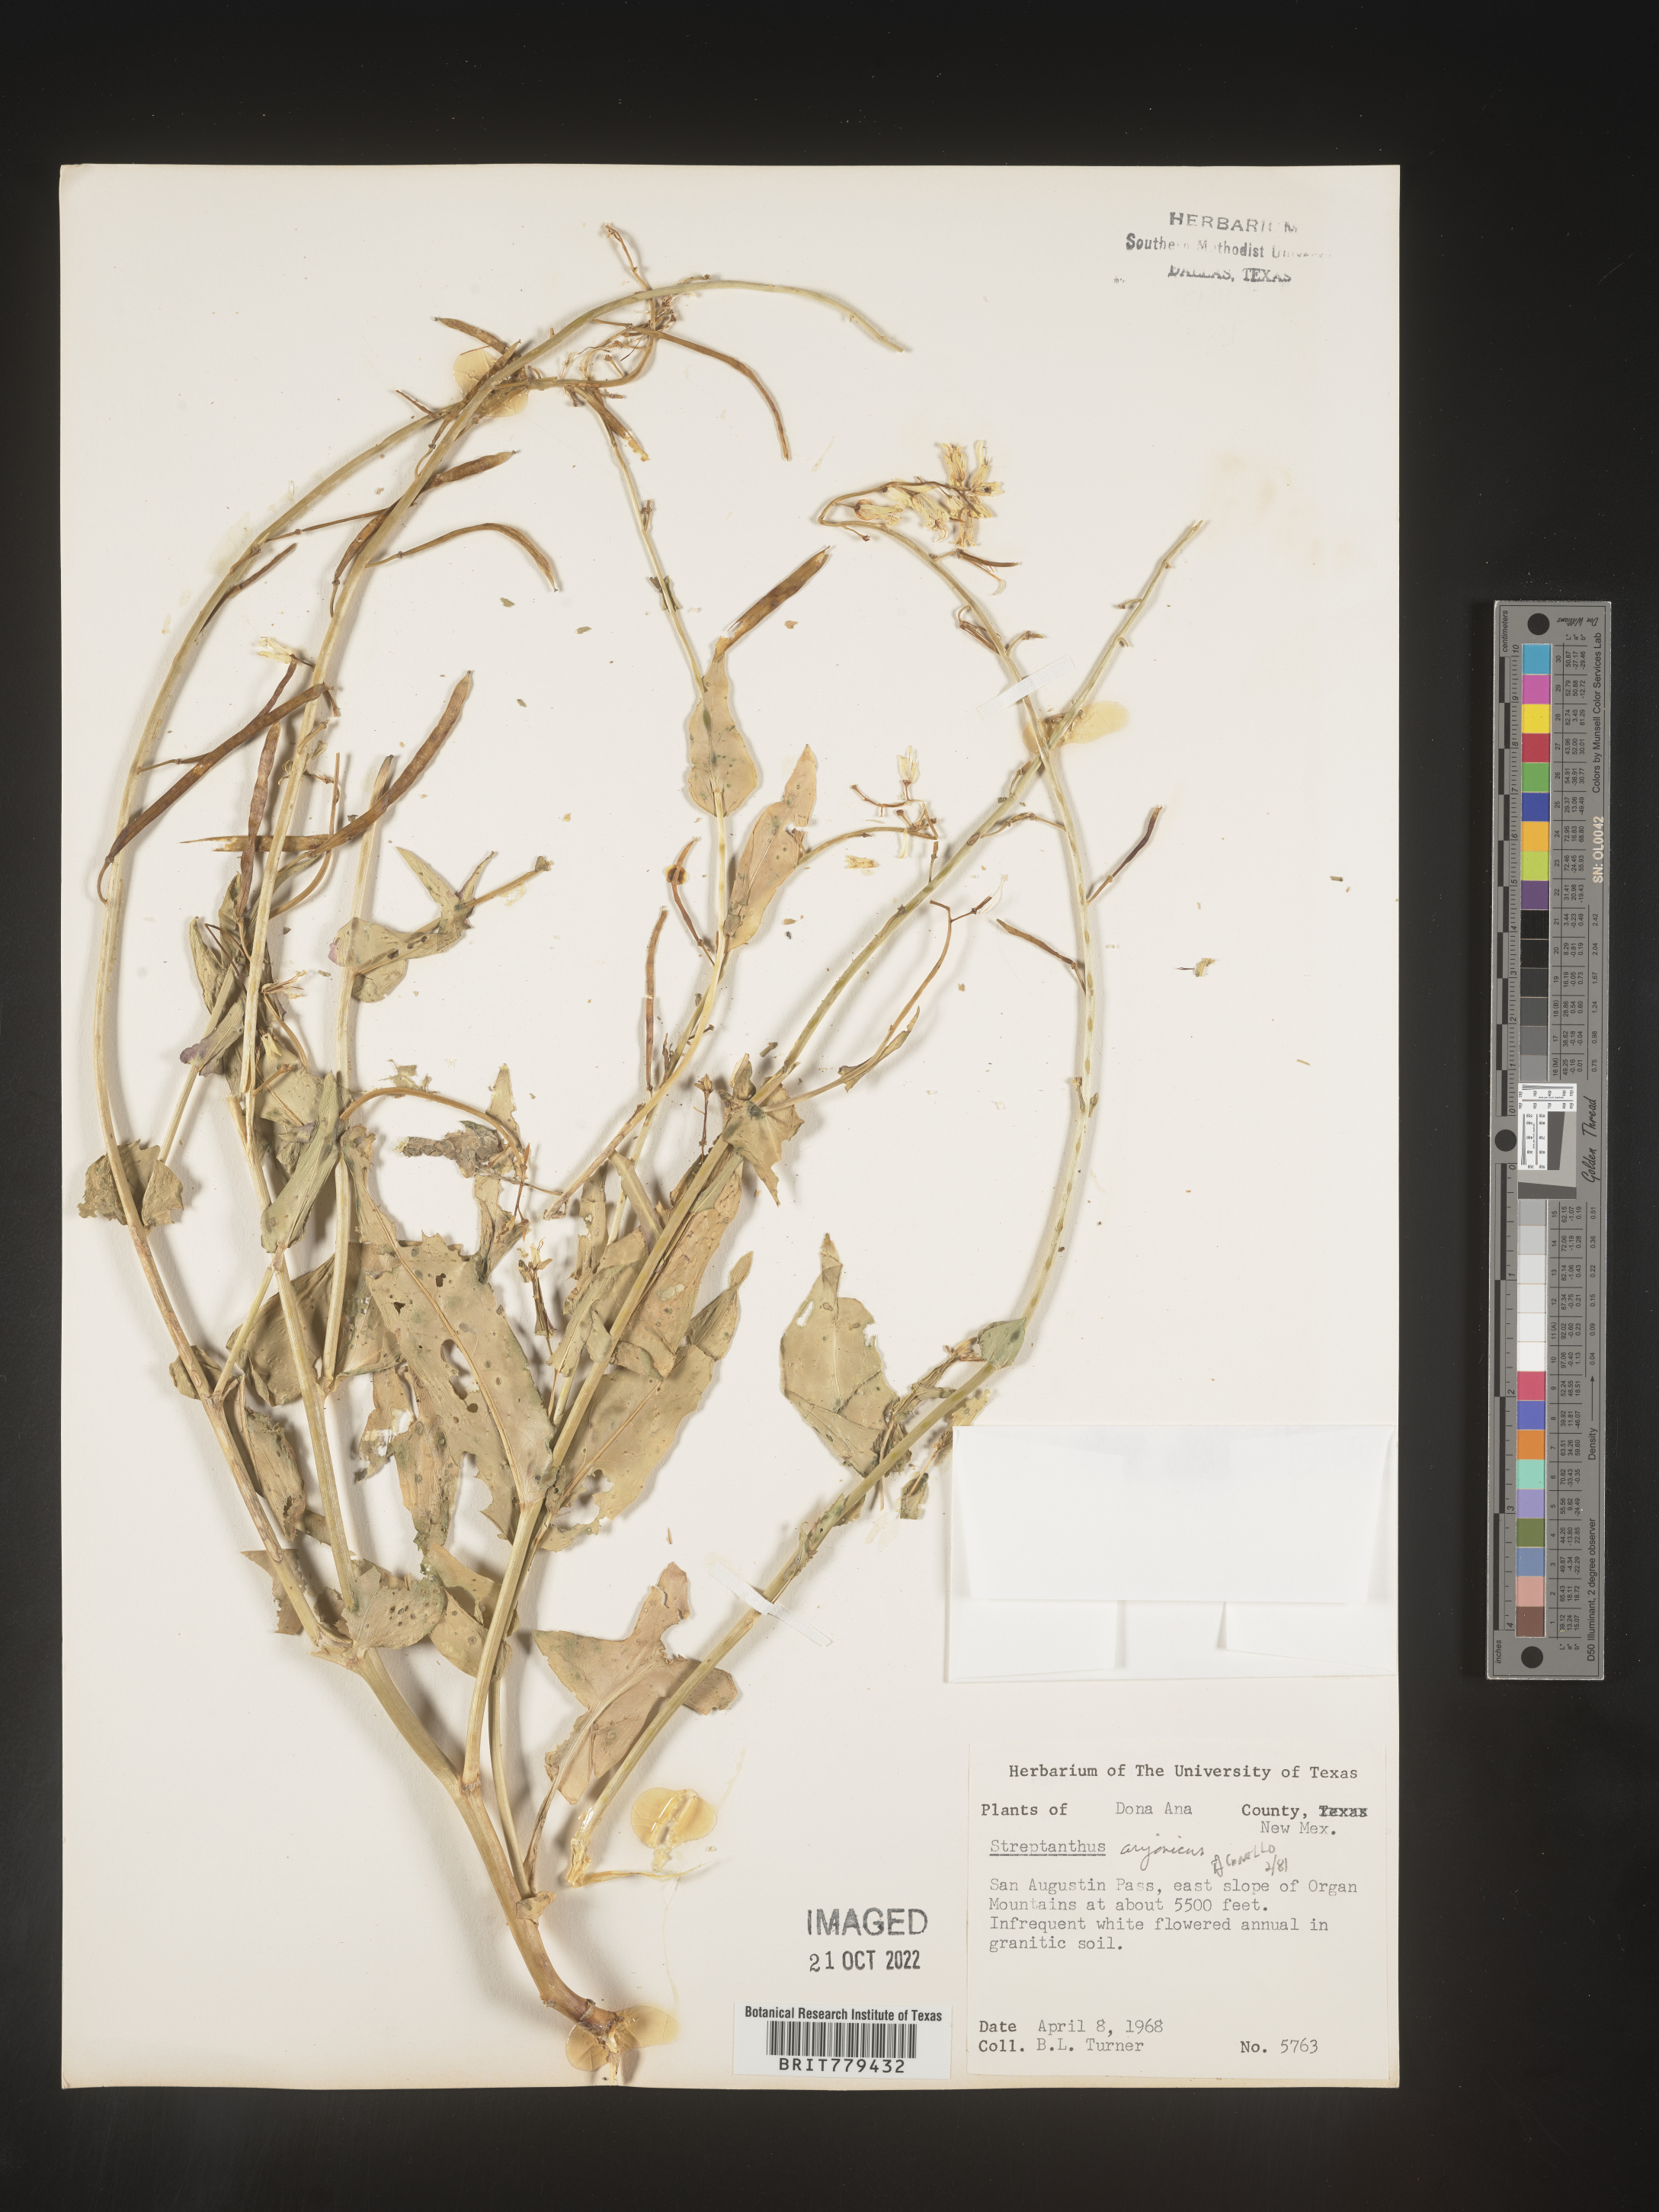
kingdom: Plantae
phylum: Tracheophyta
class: Magnoliopsida
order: Brassicales
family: Brassicaceae
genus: Streptanthus
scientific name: Streptanthus
